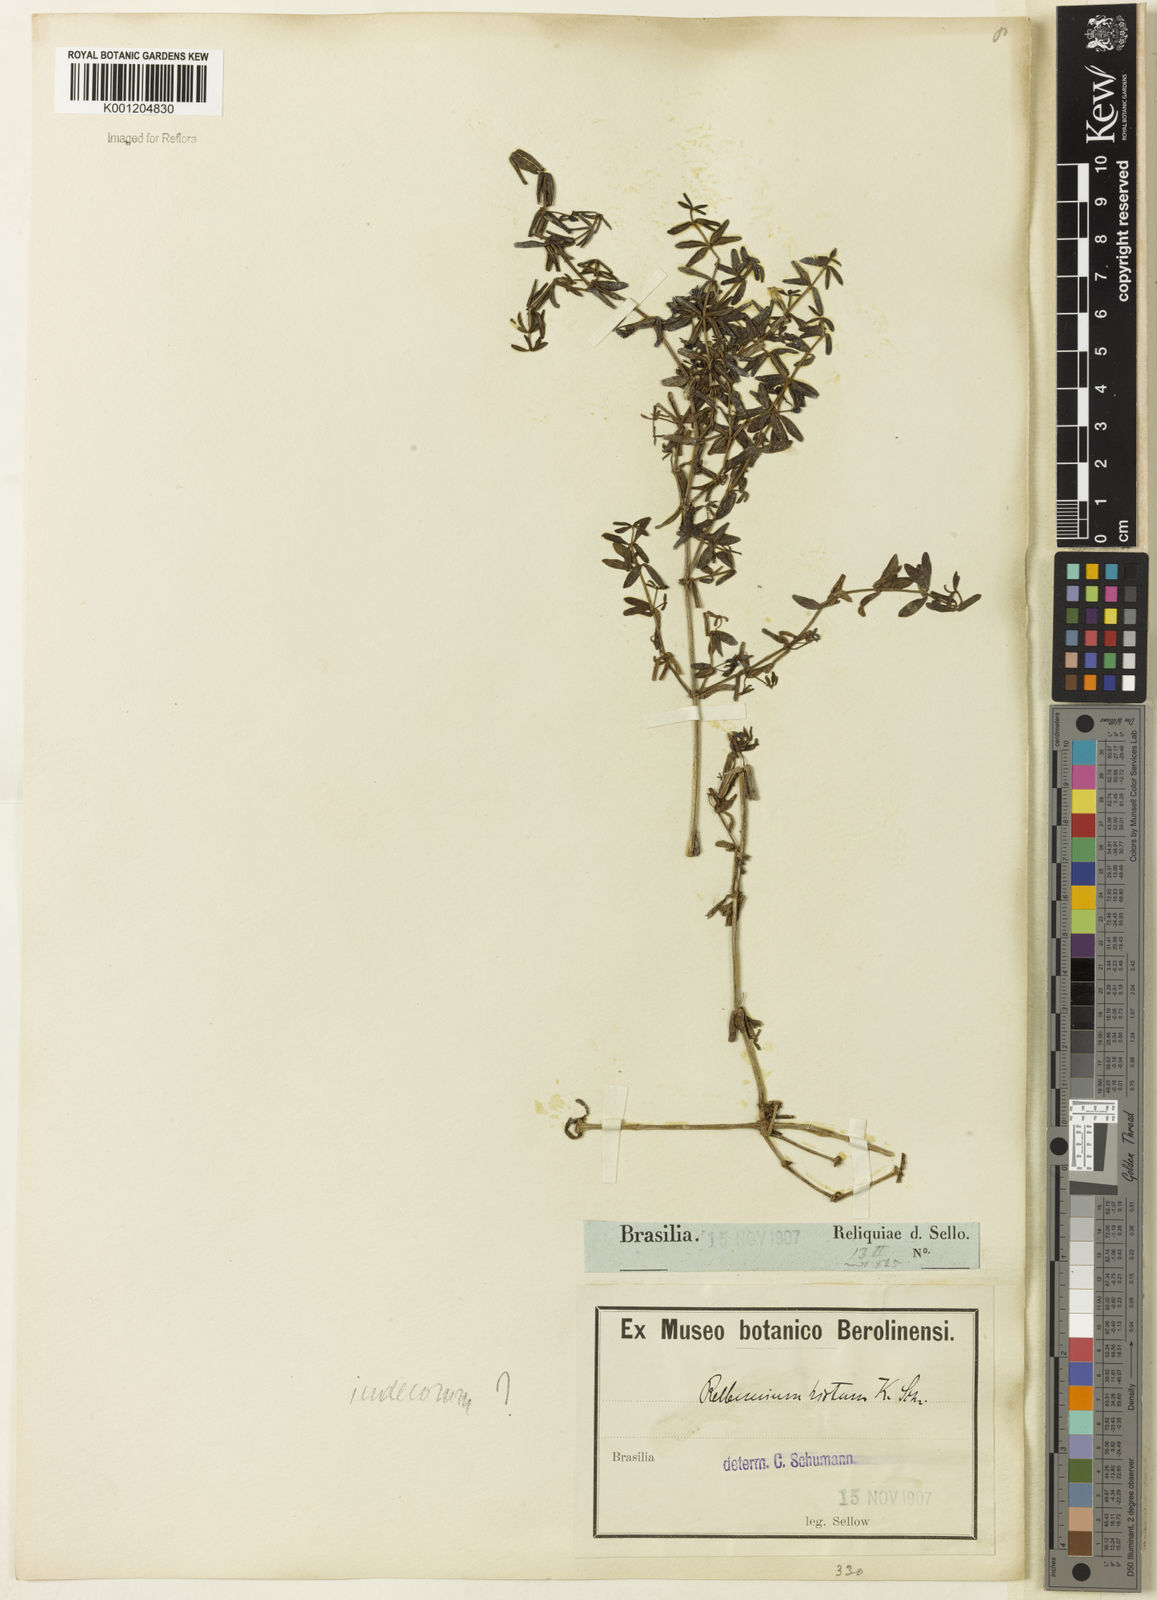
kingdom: Plantae
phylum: Tracheophyta
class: Magnoliopsida
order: Gentianales
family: Rubiaceae
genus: Galium
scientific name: Galium hypocarpium
